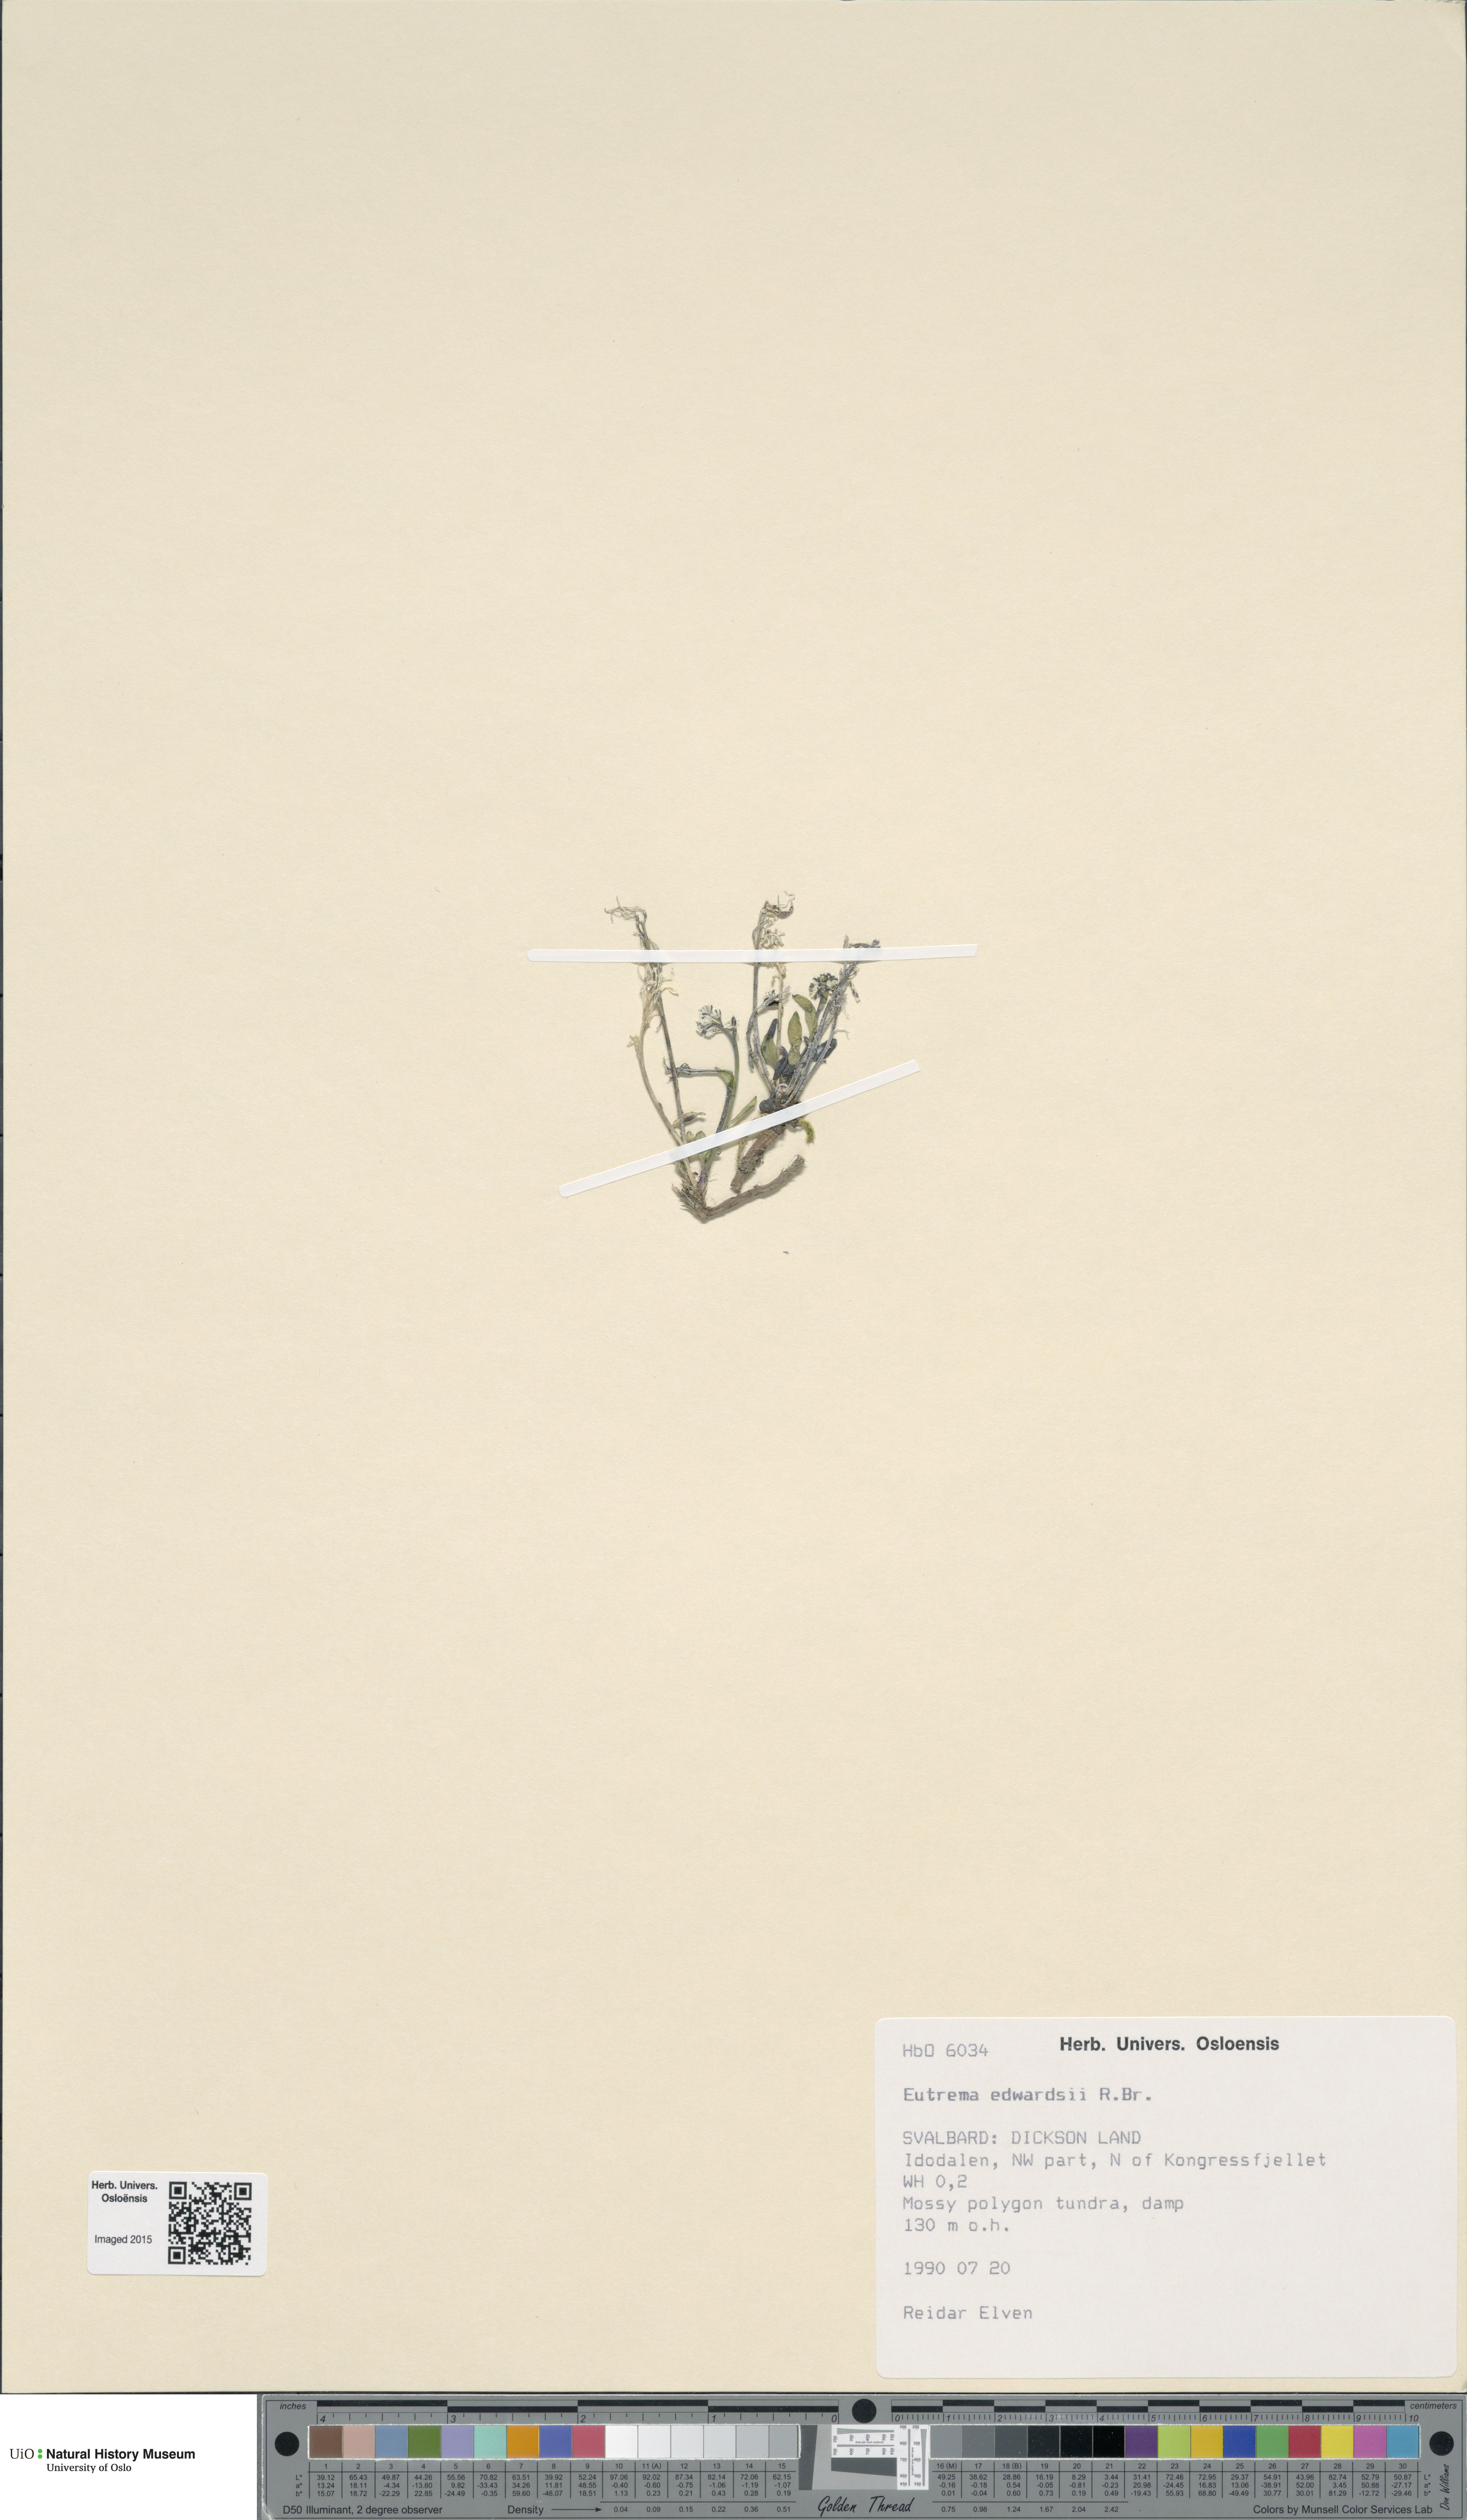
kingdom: Plantae
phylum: Tracheophyta
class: Magnoliopsida
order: Brassicales
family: Brassicaceae
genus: Eutrema
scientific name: Eutrema edwardsii
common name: Penland alpine fen mustard
